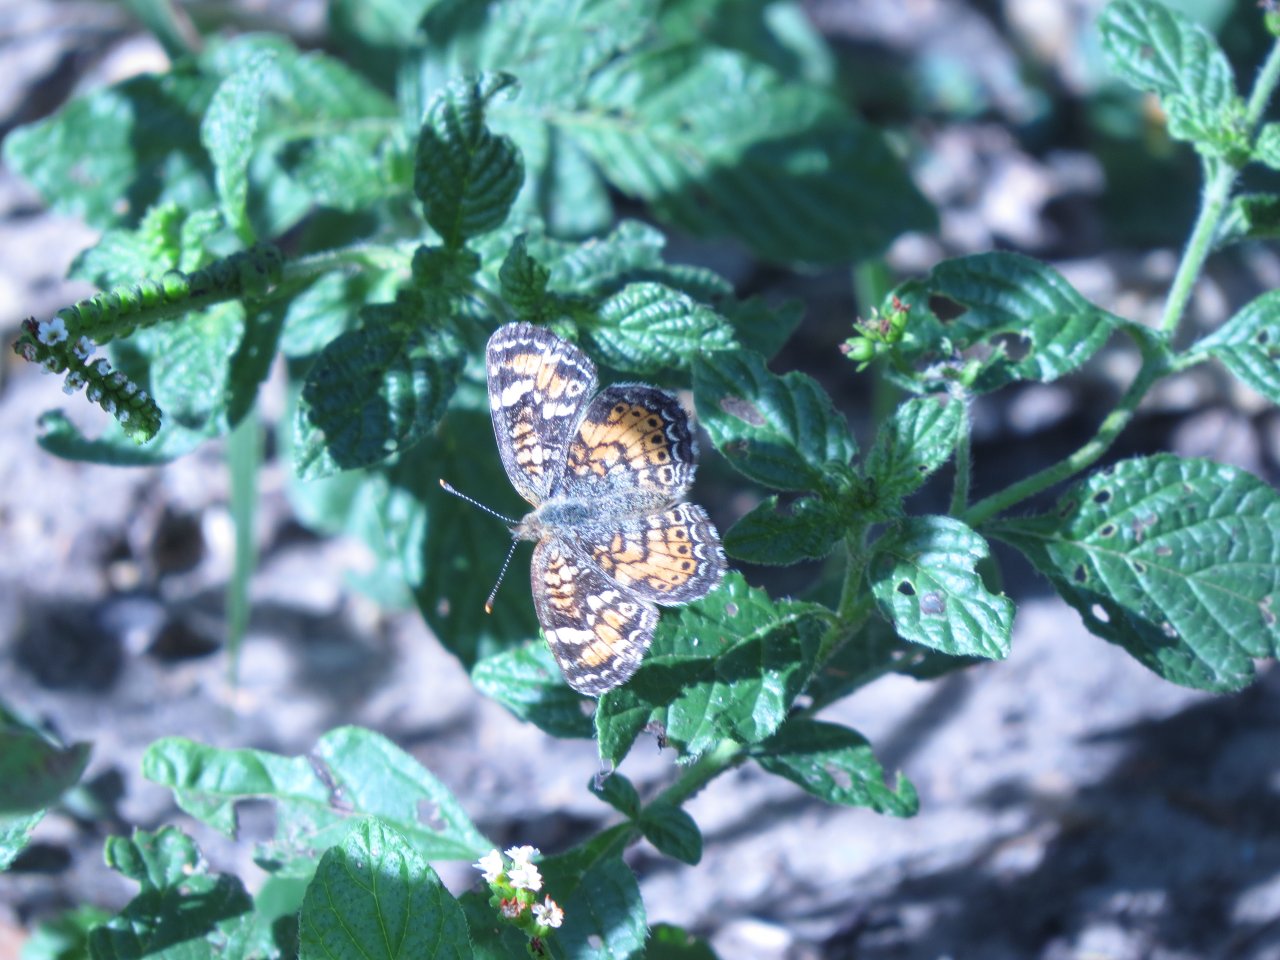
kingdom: Animalia
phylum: Arthropoda
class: Insecta
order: Lepidoptera
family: Nymphalidae
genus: Phyciodes
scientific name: Phyciodes phaon
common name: Phaon Crescent
